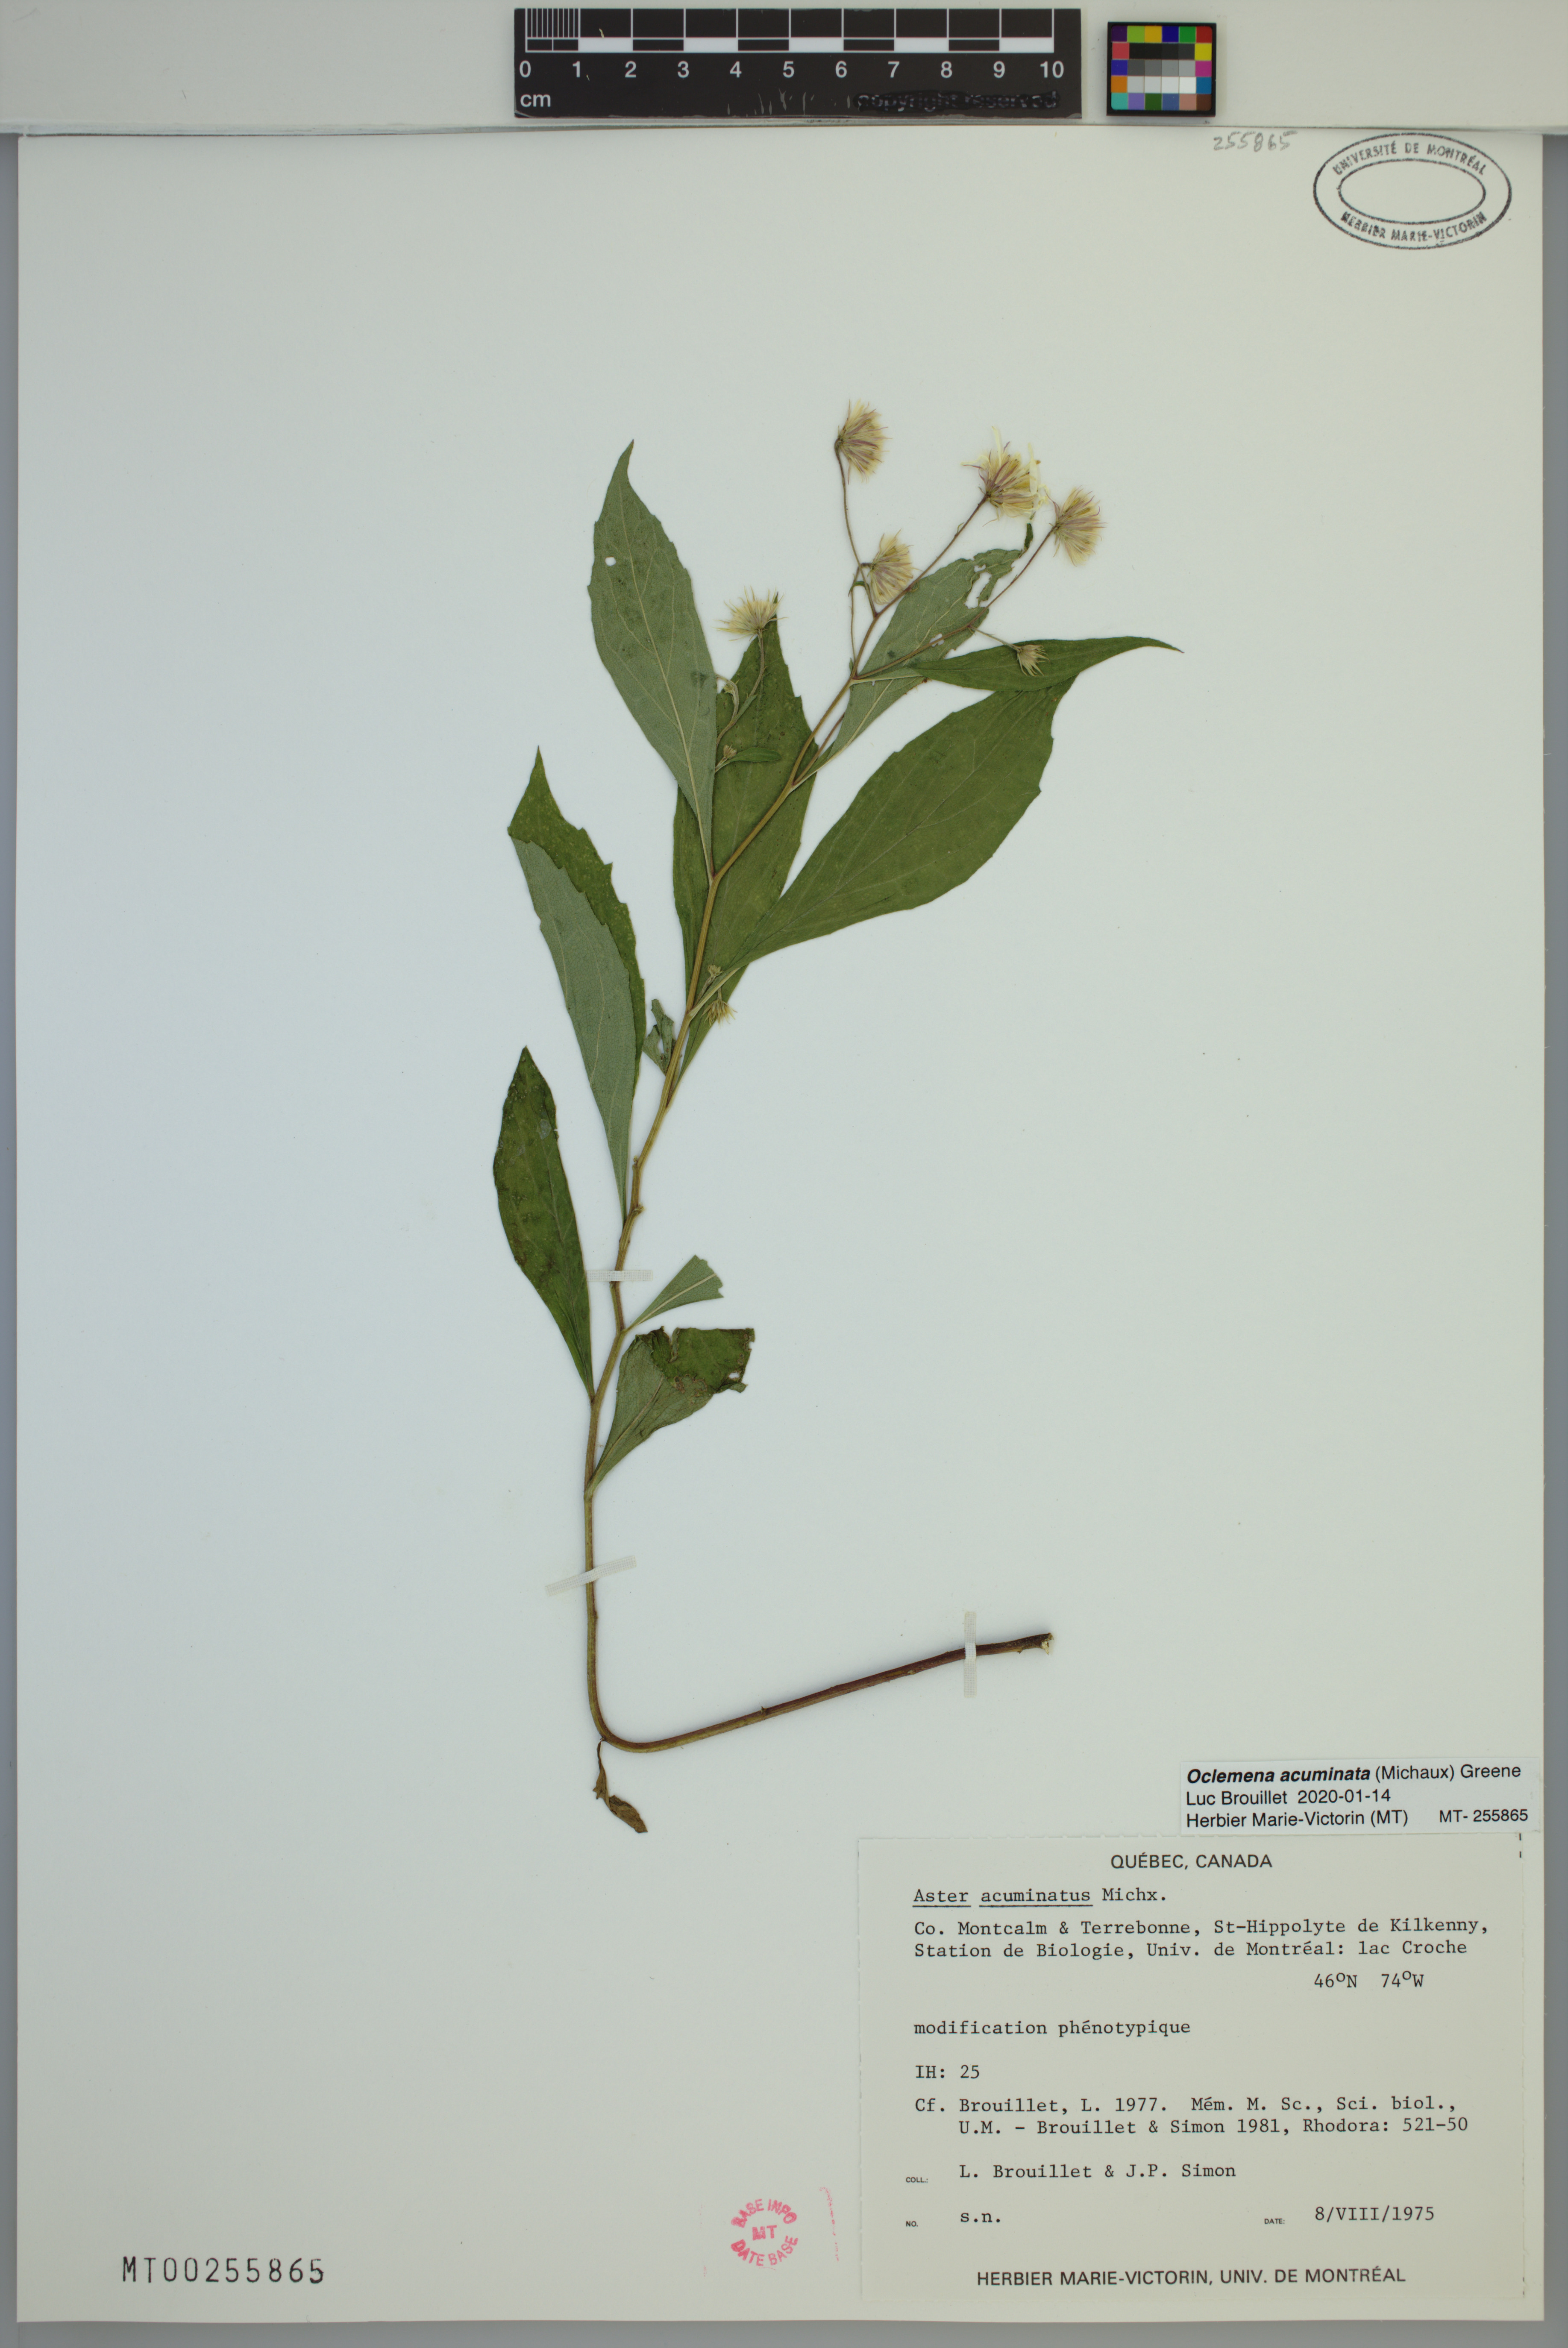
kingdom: Plantae
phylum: Tracheophyta
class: Magnoliopsida
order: Asterales
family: Asteraceae
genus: Oclemena
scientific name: Oclemena acuminata
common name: Mountain aster
